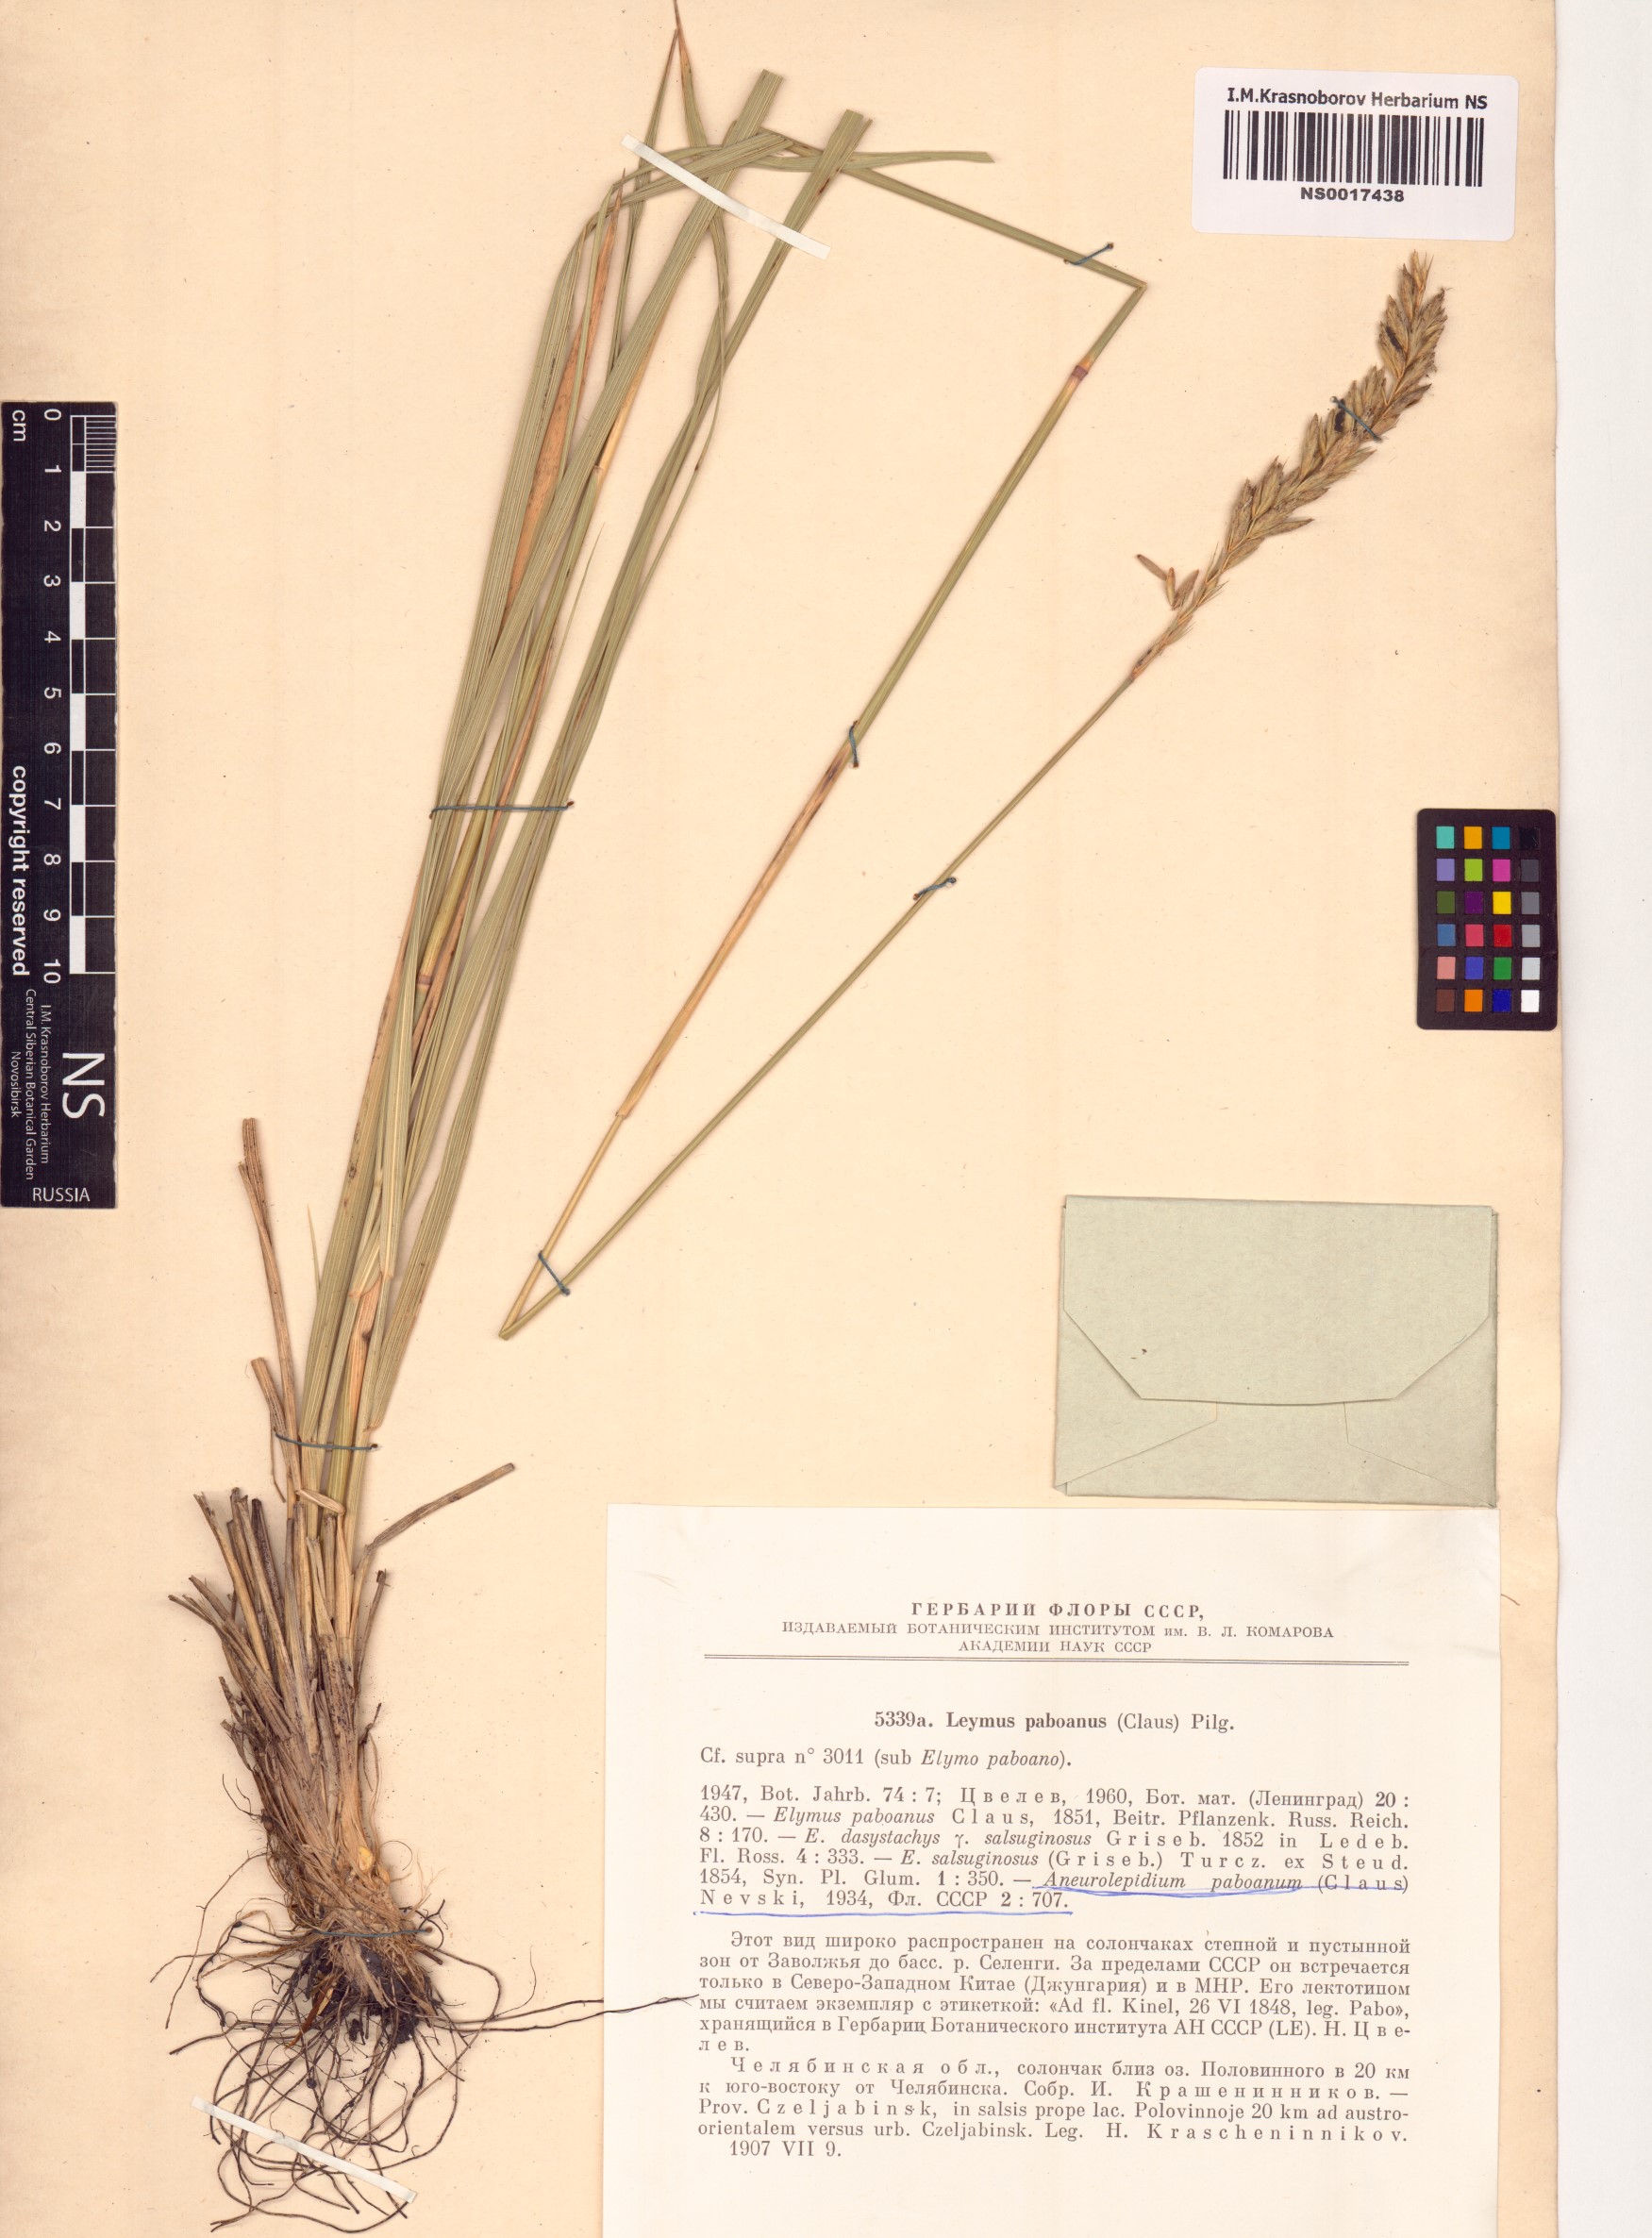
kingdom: Plantae
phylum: Tracheophyta
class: Liliopsida
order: Poales
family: Poaceae
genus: Leymus
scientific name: Leymus paboanus
